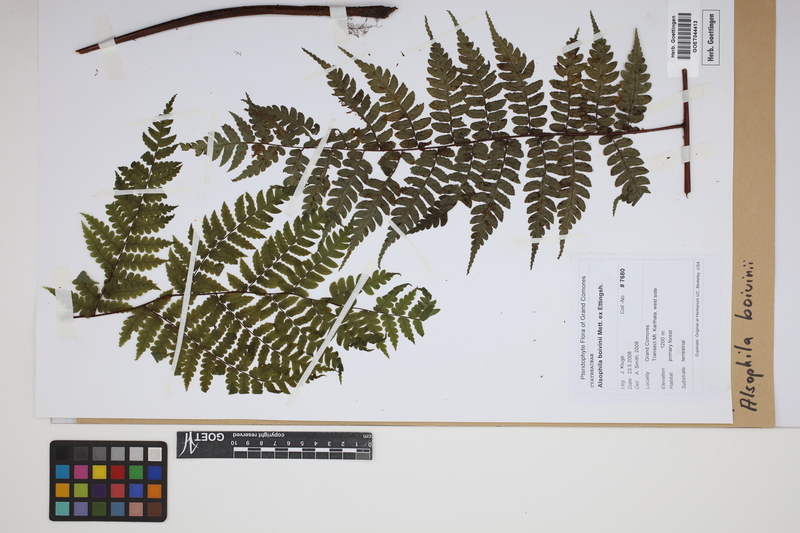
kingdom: Plantae
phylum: Tracheophyta
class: Polypodiopsida
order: Cyatheales
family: Cyatheaceae
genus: Gymnosphaera
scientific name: Gymnosphaera boivinii
